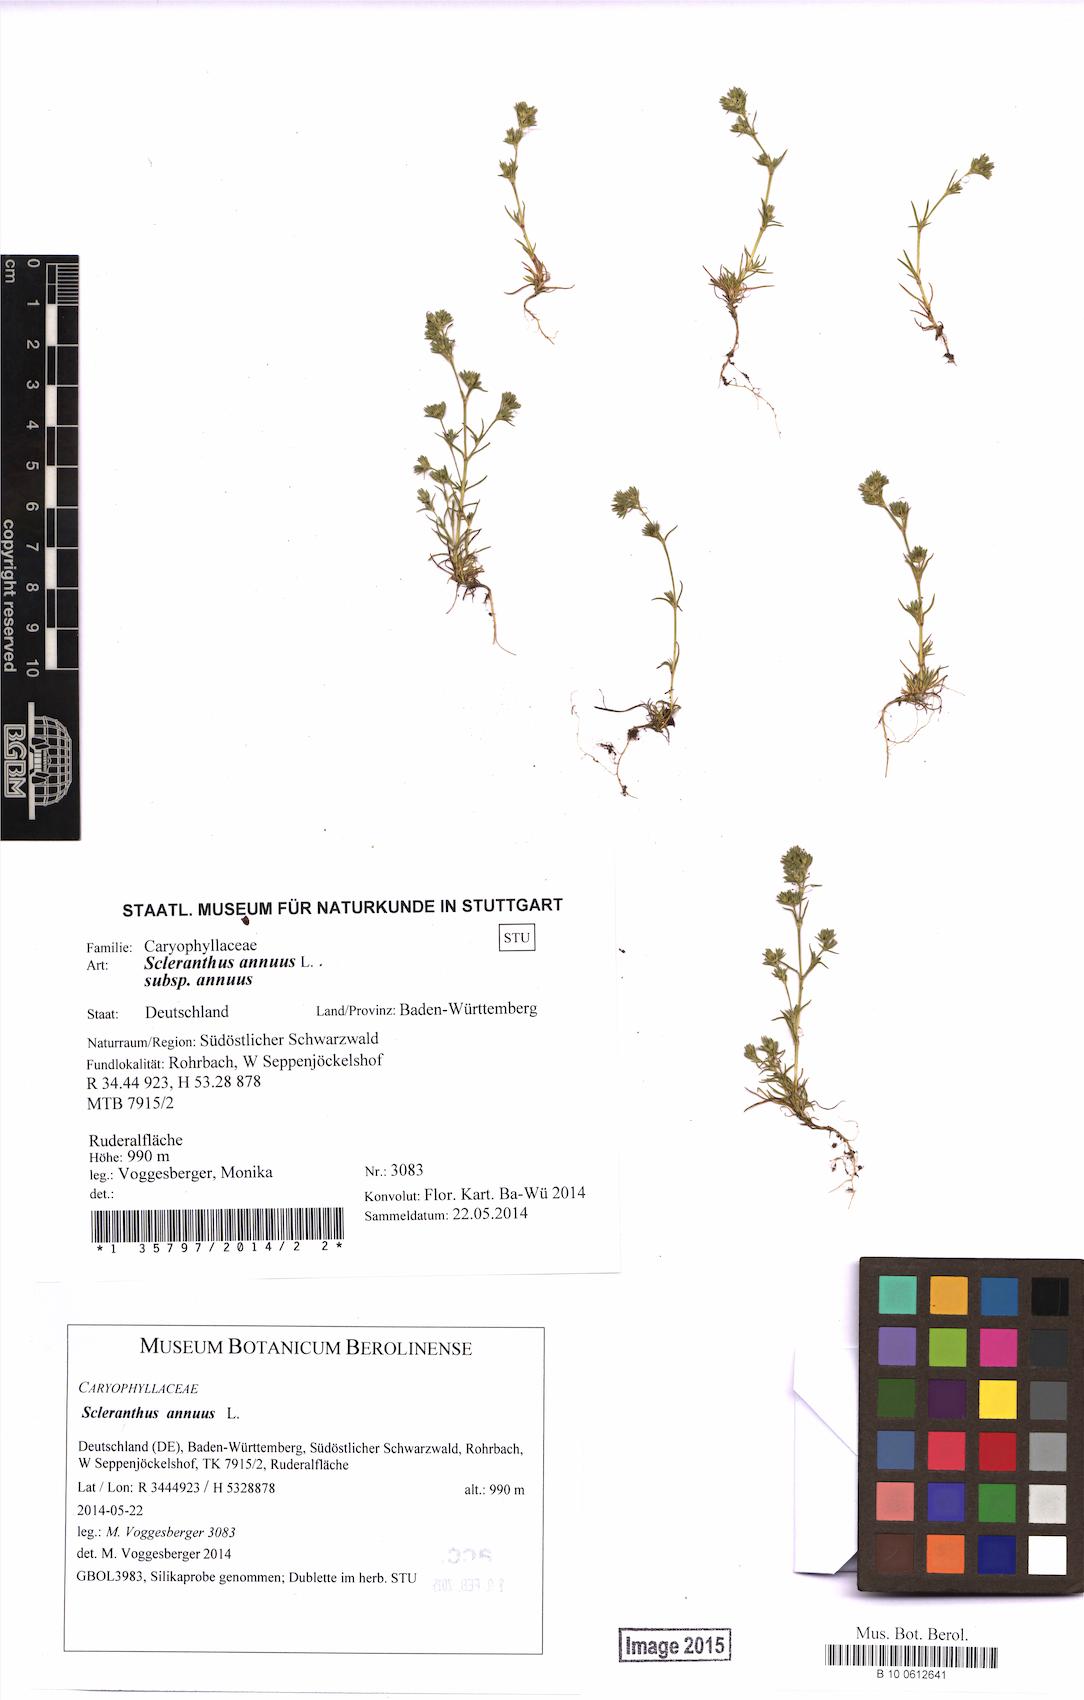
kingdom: Plantae
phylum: Tracheophyta
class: Magnoliopsida
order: Caryophyllales
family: Caryophyllaceae
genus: Scleranthus
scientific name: Scleranthus annuus
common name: Annual knawel
